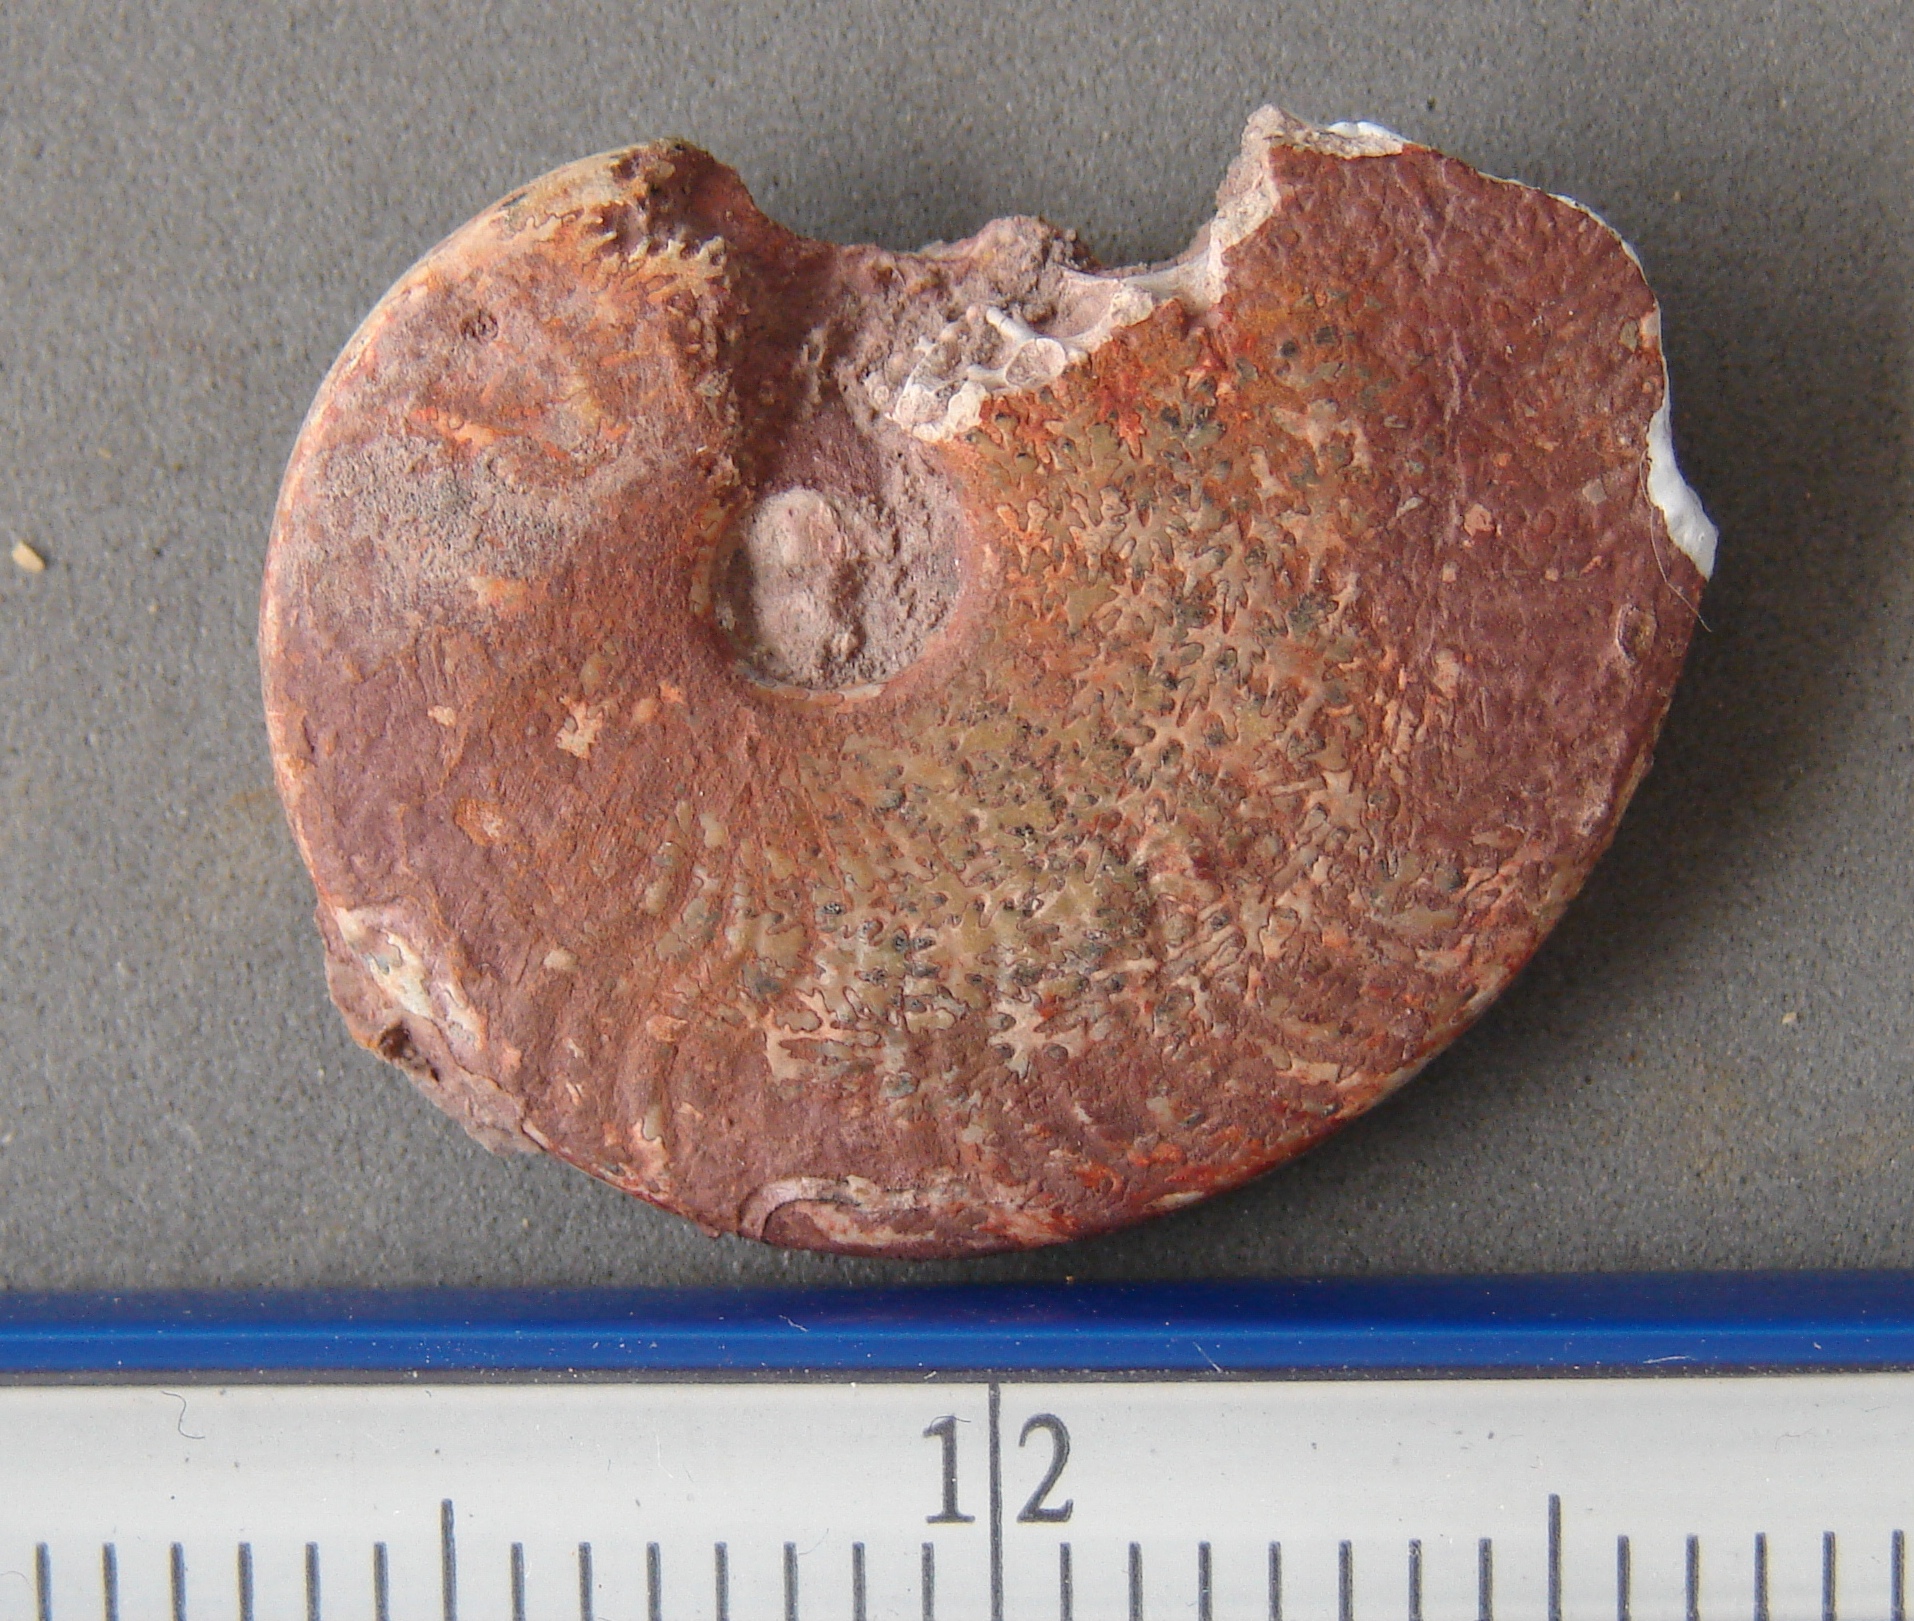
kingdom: Animalia
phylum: Mollusca
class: Cephalopoda
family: Hildoceratidae
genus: Osperleioceras
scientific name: Osperleioceras bicarinatum
